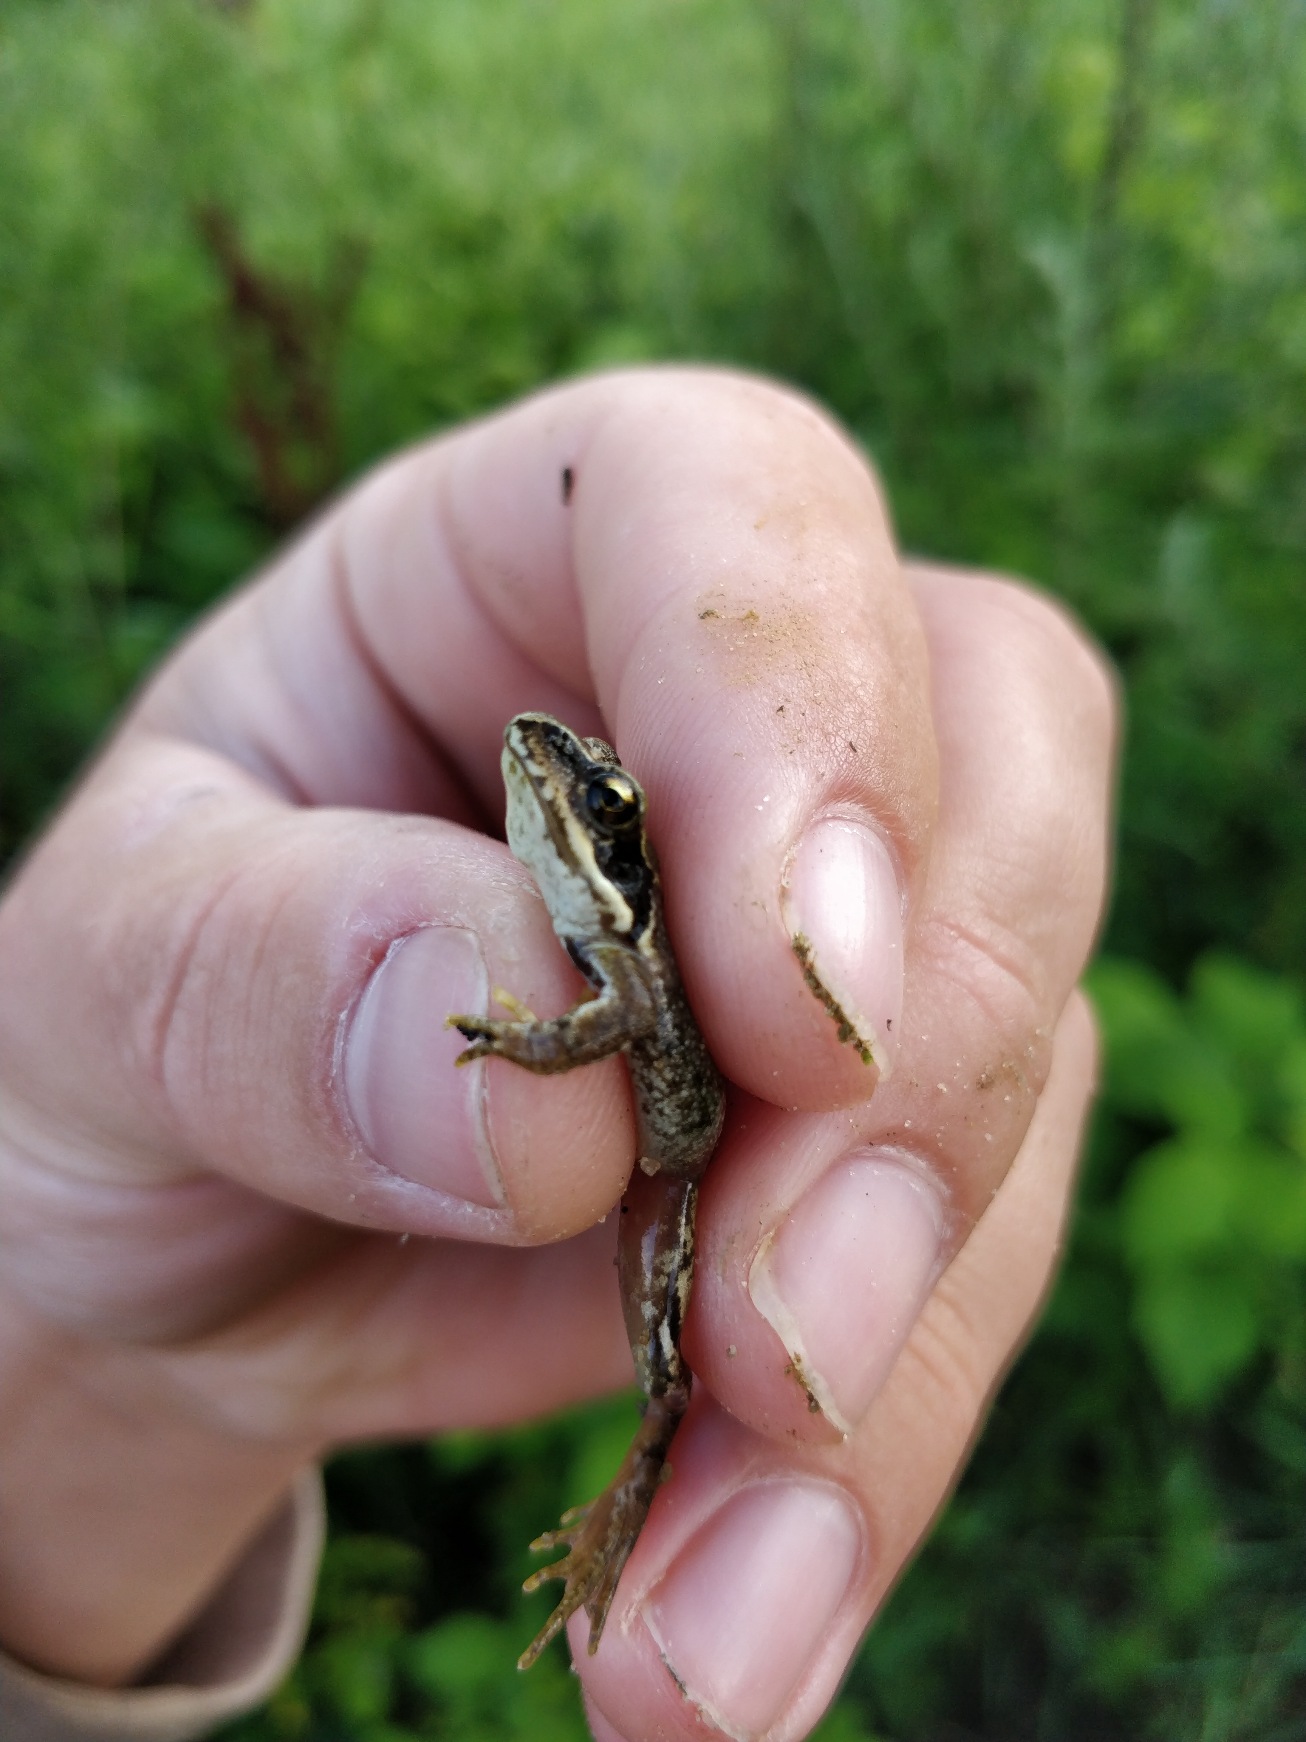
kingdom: Animalia
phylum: Chordata
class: Amphibia
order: Anura
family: Ranidae
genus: Rana
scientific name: Rana temporaria
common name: Butsnudet frø
